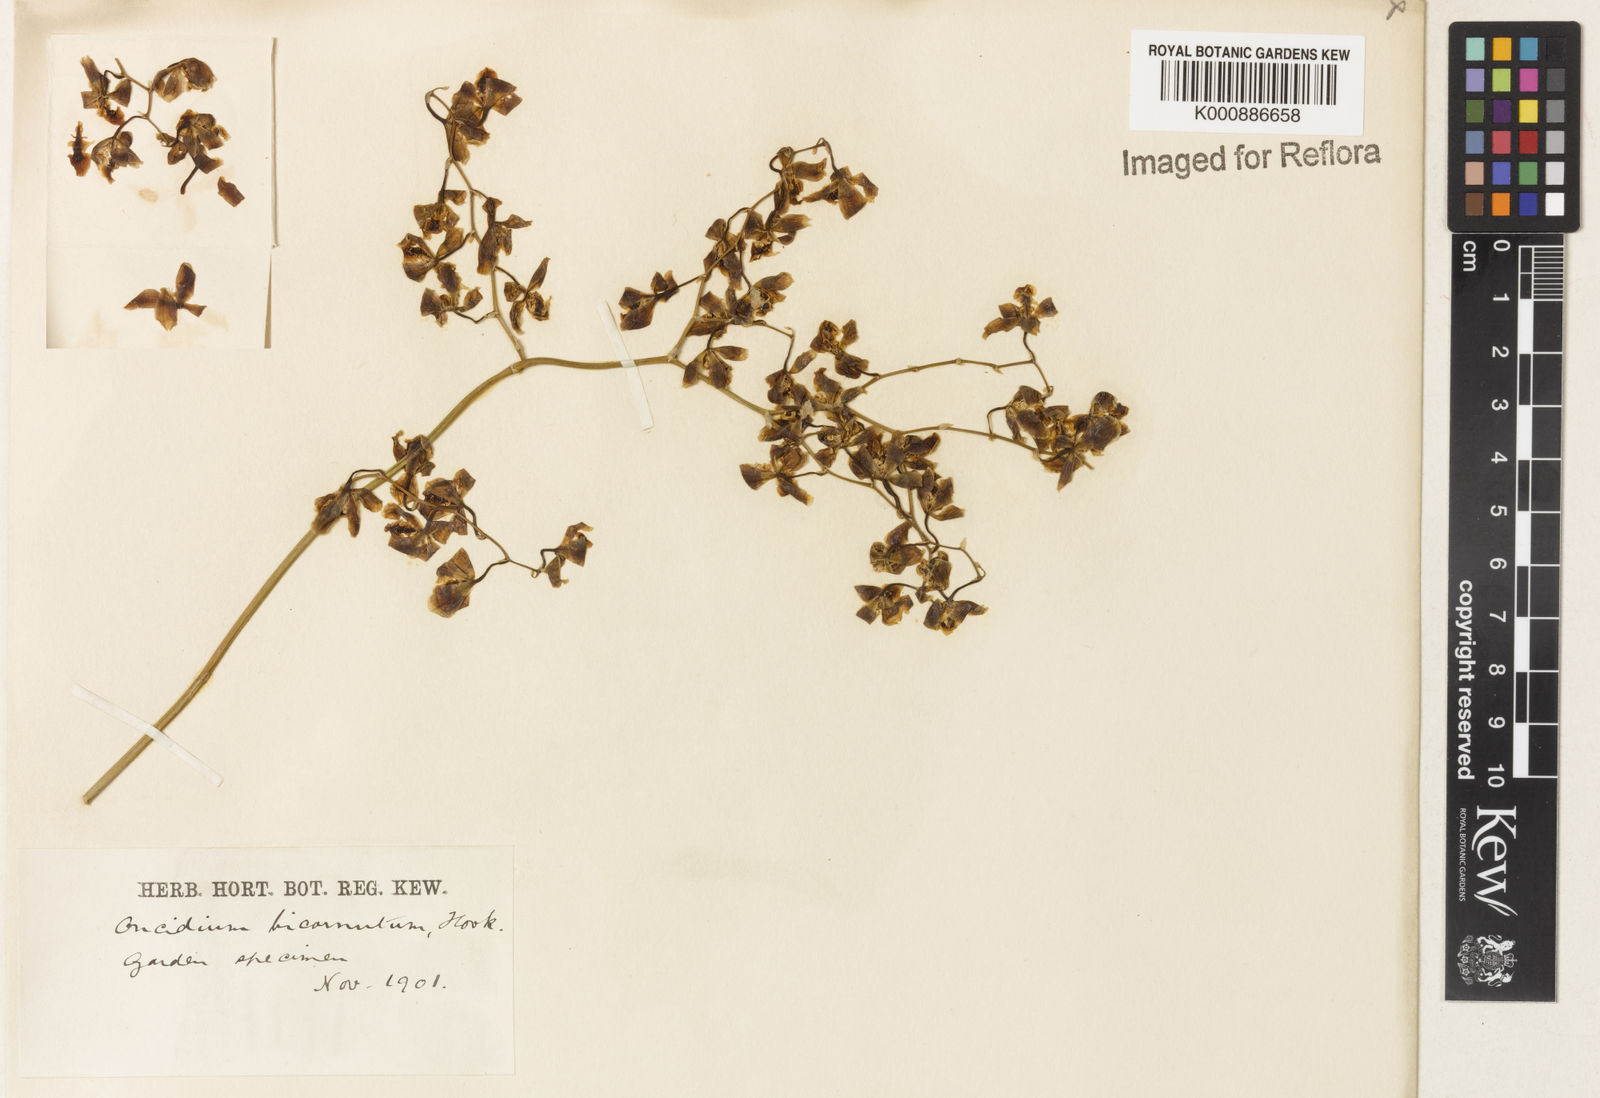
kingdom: Plantae
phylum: Tracheophyta
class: Liliopsida
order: Asparagales
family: Orchidaceae
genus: Gomesa
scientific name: Gomesa pubes
